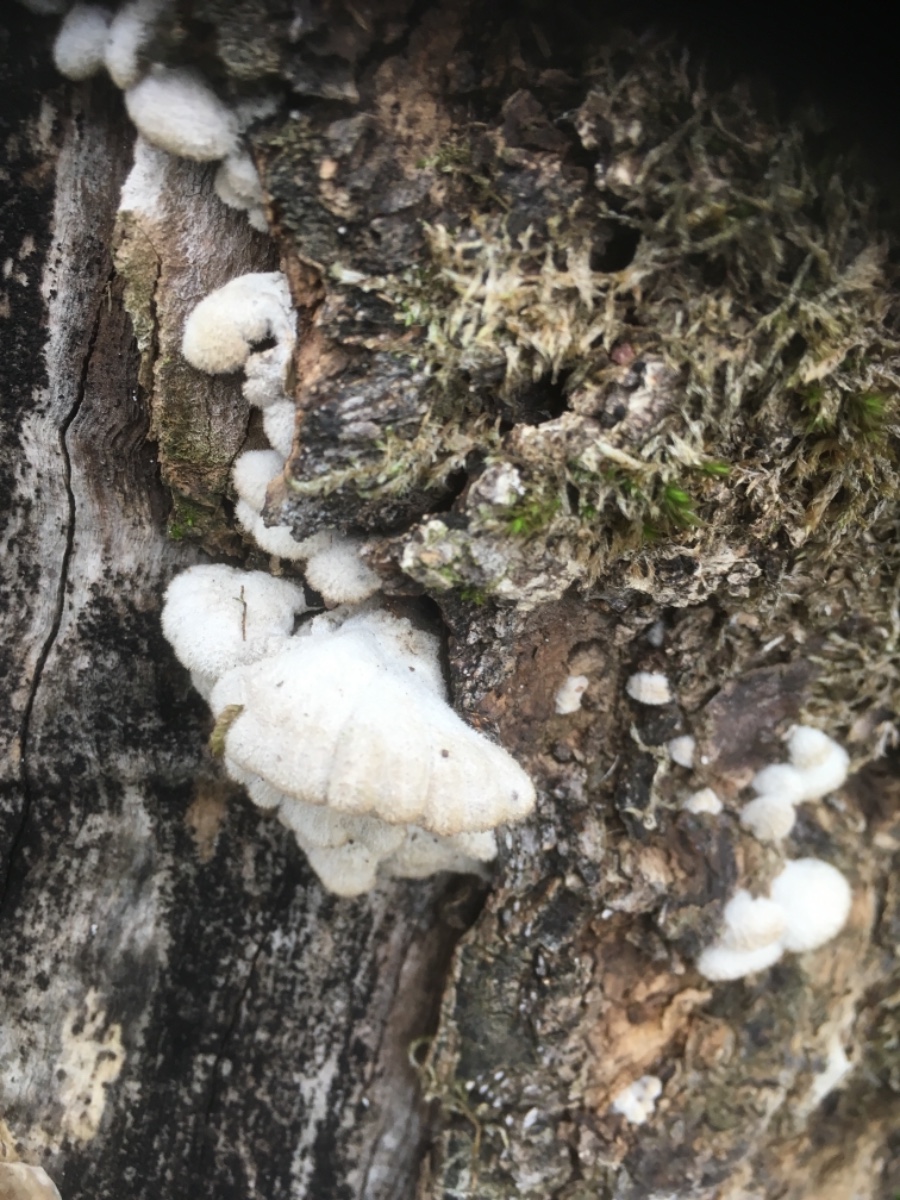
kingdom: Fungi
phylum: Basidiomycota
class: Agaricomycetes
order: Agaricales
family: Schizophyllaceae
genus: Schizophyllum
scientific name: Schizophyllum commune
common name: kløvblad
